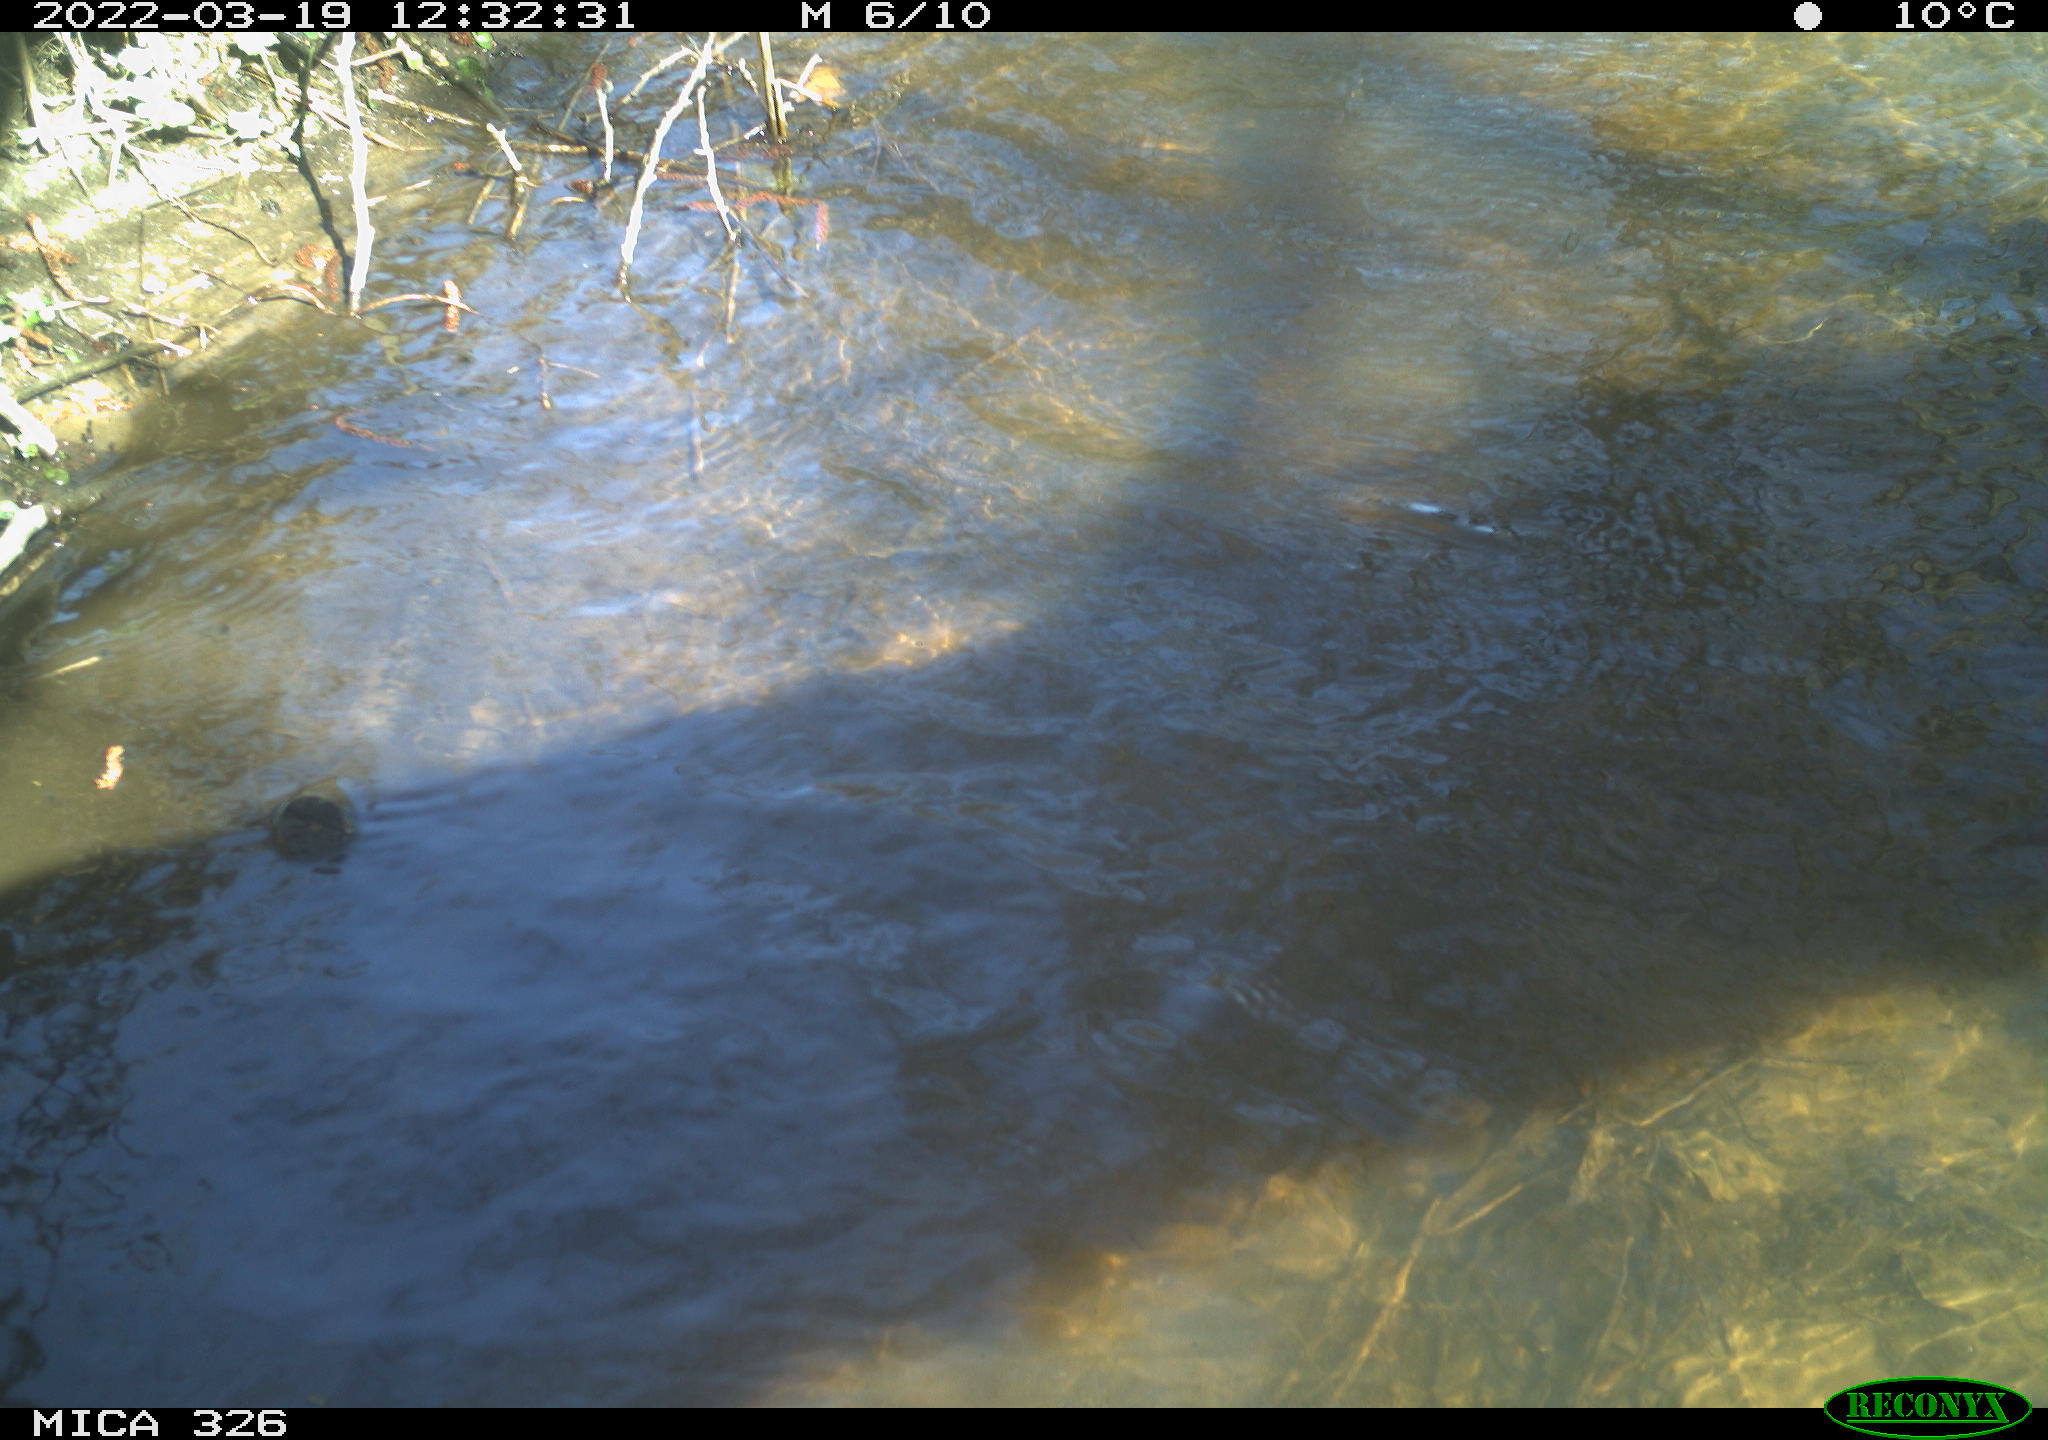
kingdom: Animalia
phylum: Chordata
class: Mammalia
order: Rodentia
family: Cricetidae
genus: Ondatra
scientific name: Ondatra zibethicus
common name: Muskrat
